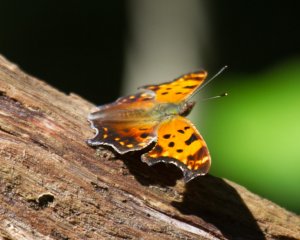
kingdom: Animalia
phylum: Arthropoda
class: Insecta
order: Lepidoptera
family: Nymphalidae
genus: Polygonia
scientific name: Polygonia comma
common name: Eastern Comma
